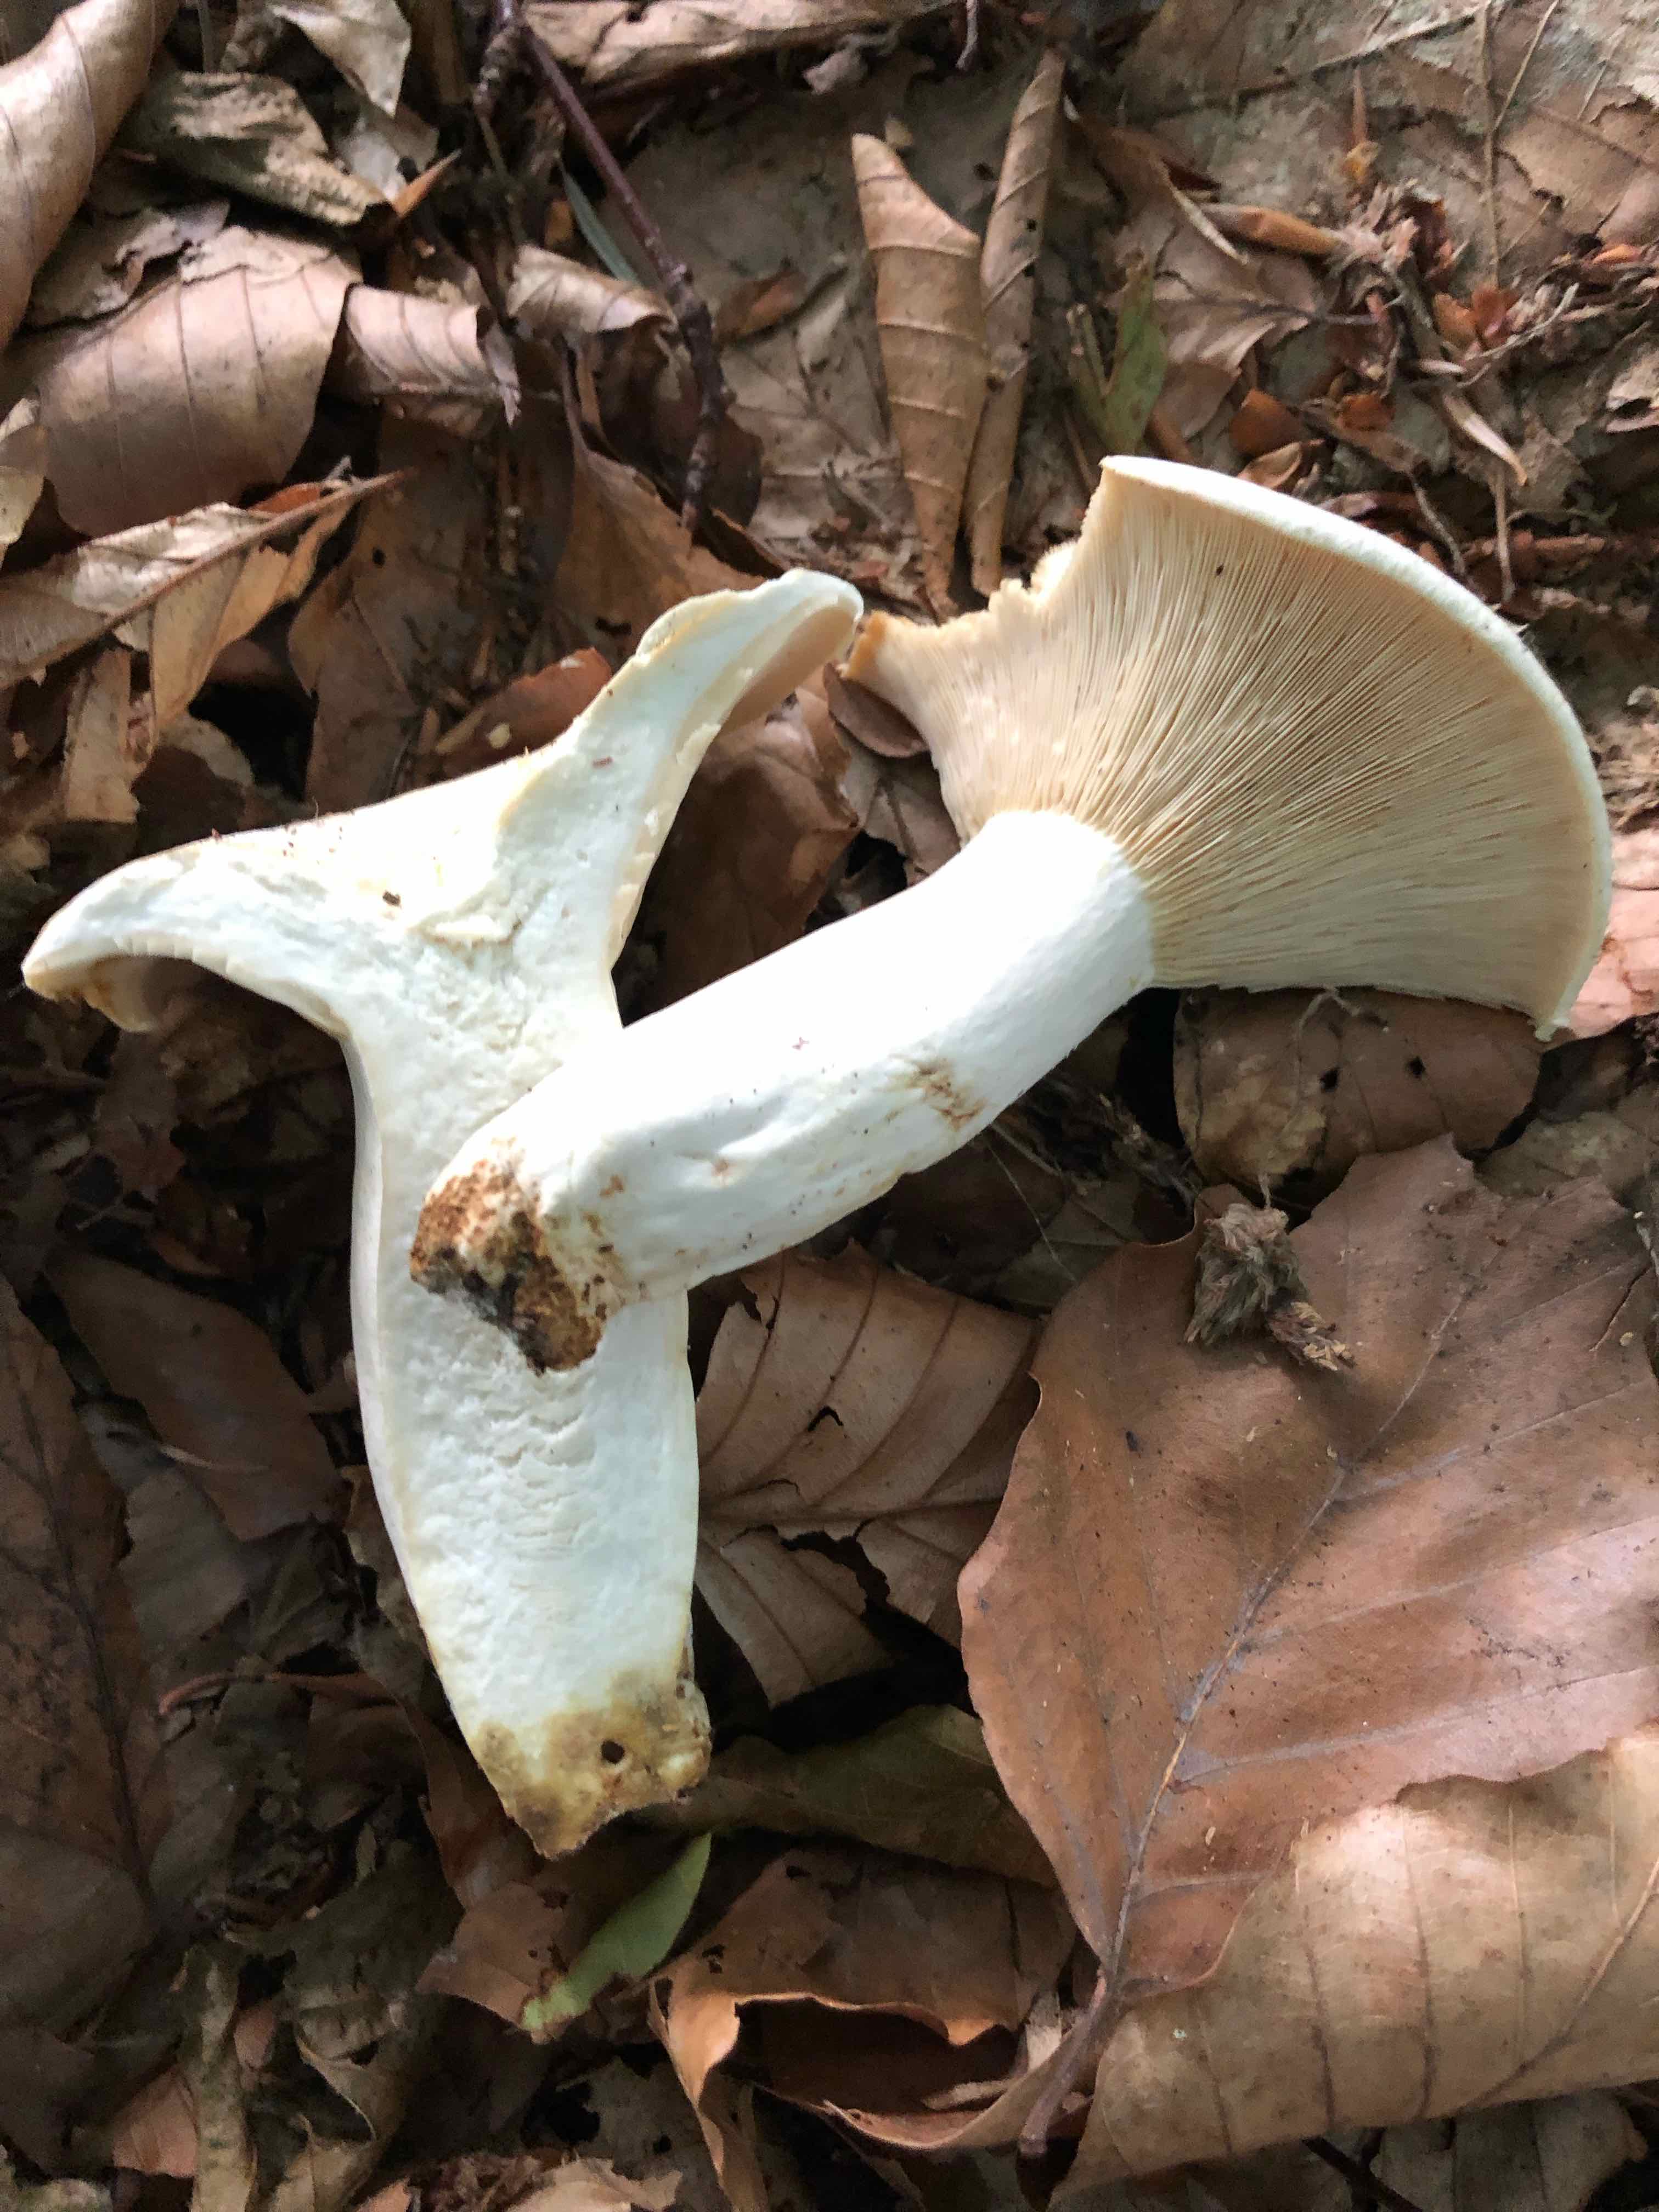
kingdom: Fungi
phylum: Basidiomycota
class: Agaricomycetes
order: Russulales
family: Russulaceae
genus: Lactifluus
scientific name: Lactifluus piperatus
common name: peber-mælkehat
